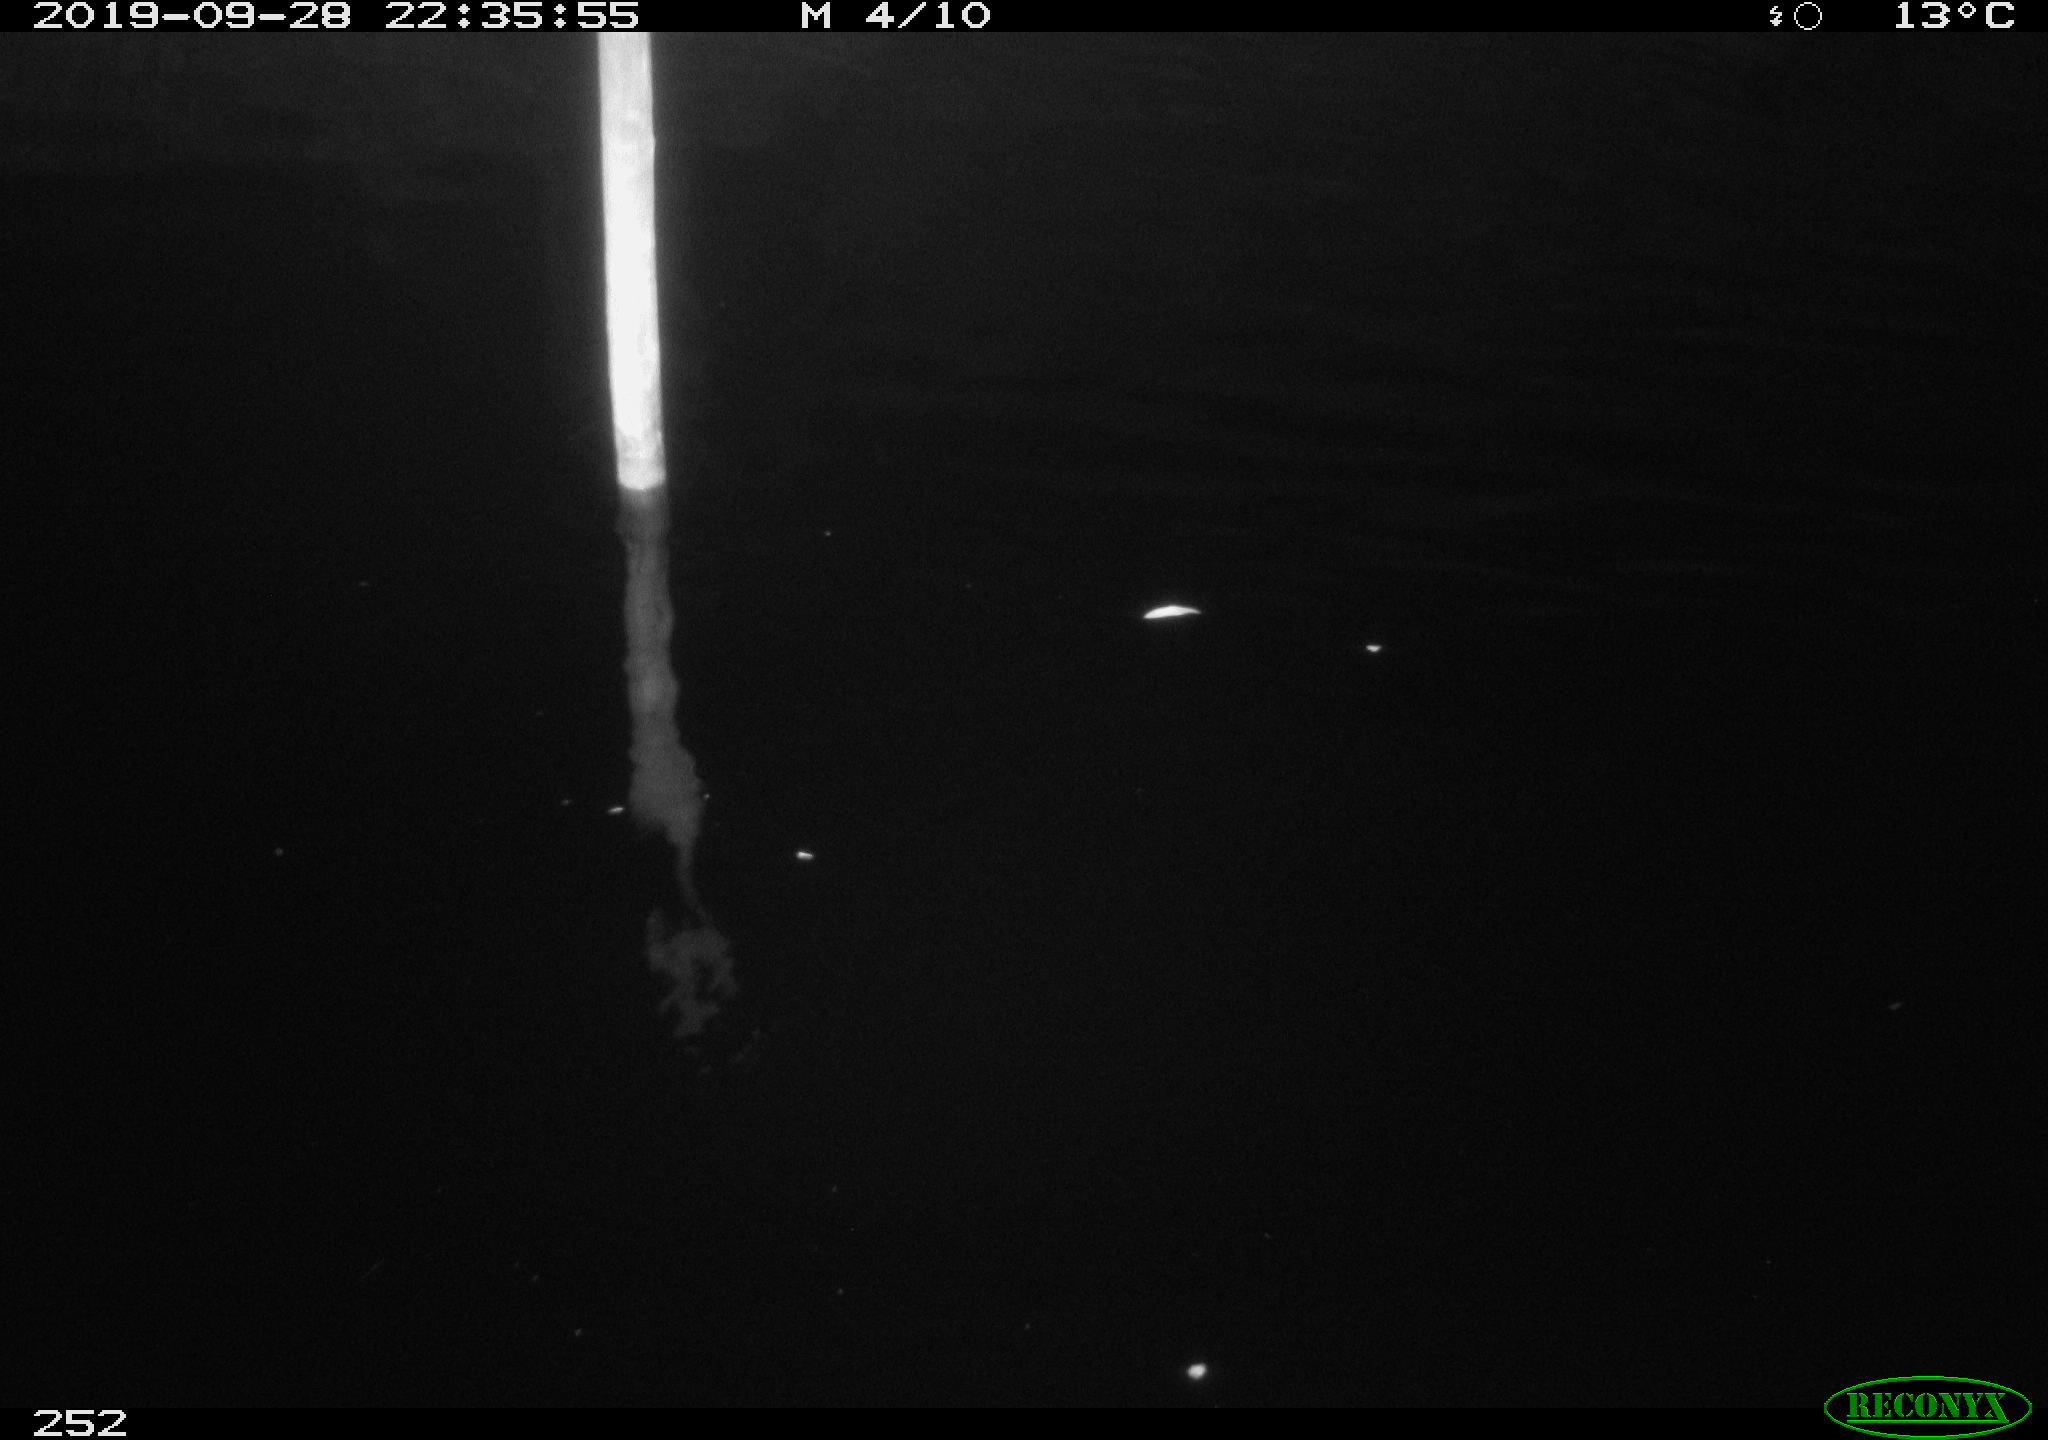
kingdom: Animalia
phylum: Chordata
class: Aves
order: Anseriformes
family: Anatidae
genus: Anas
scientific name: Anas platyrhynchos
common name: Mallard
